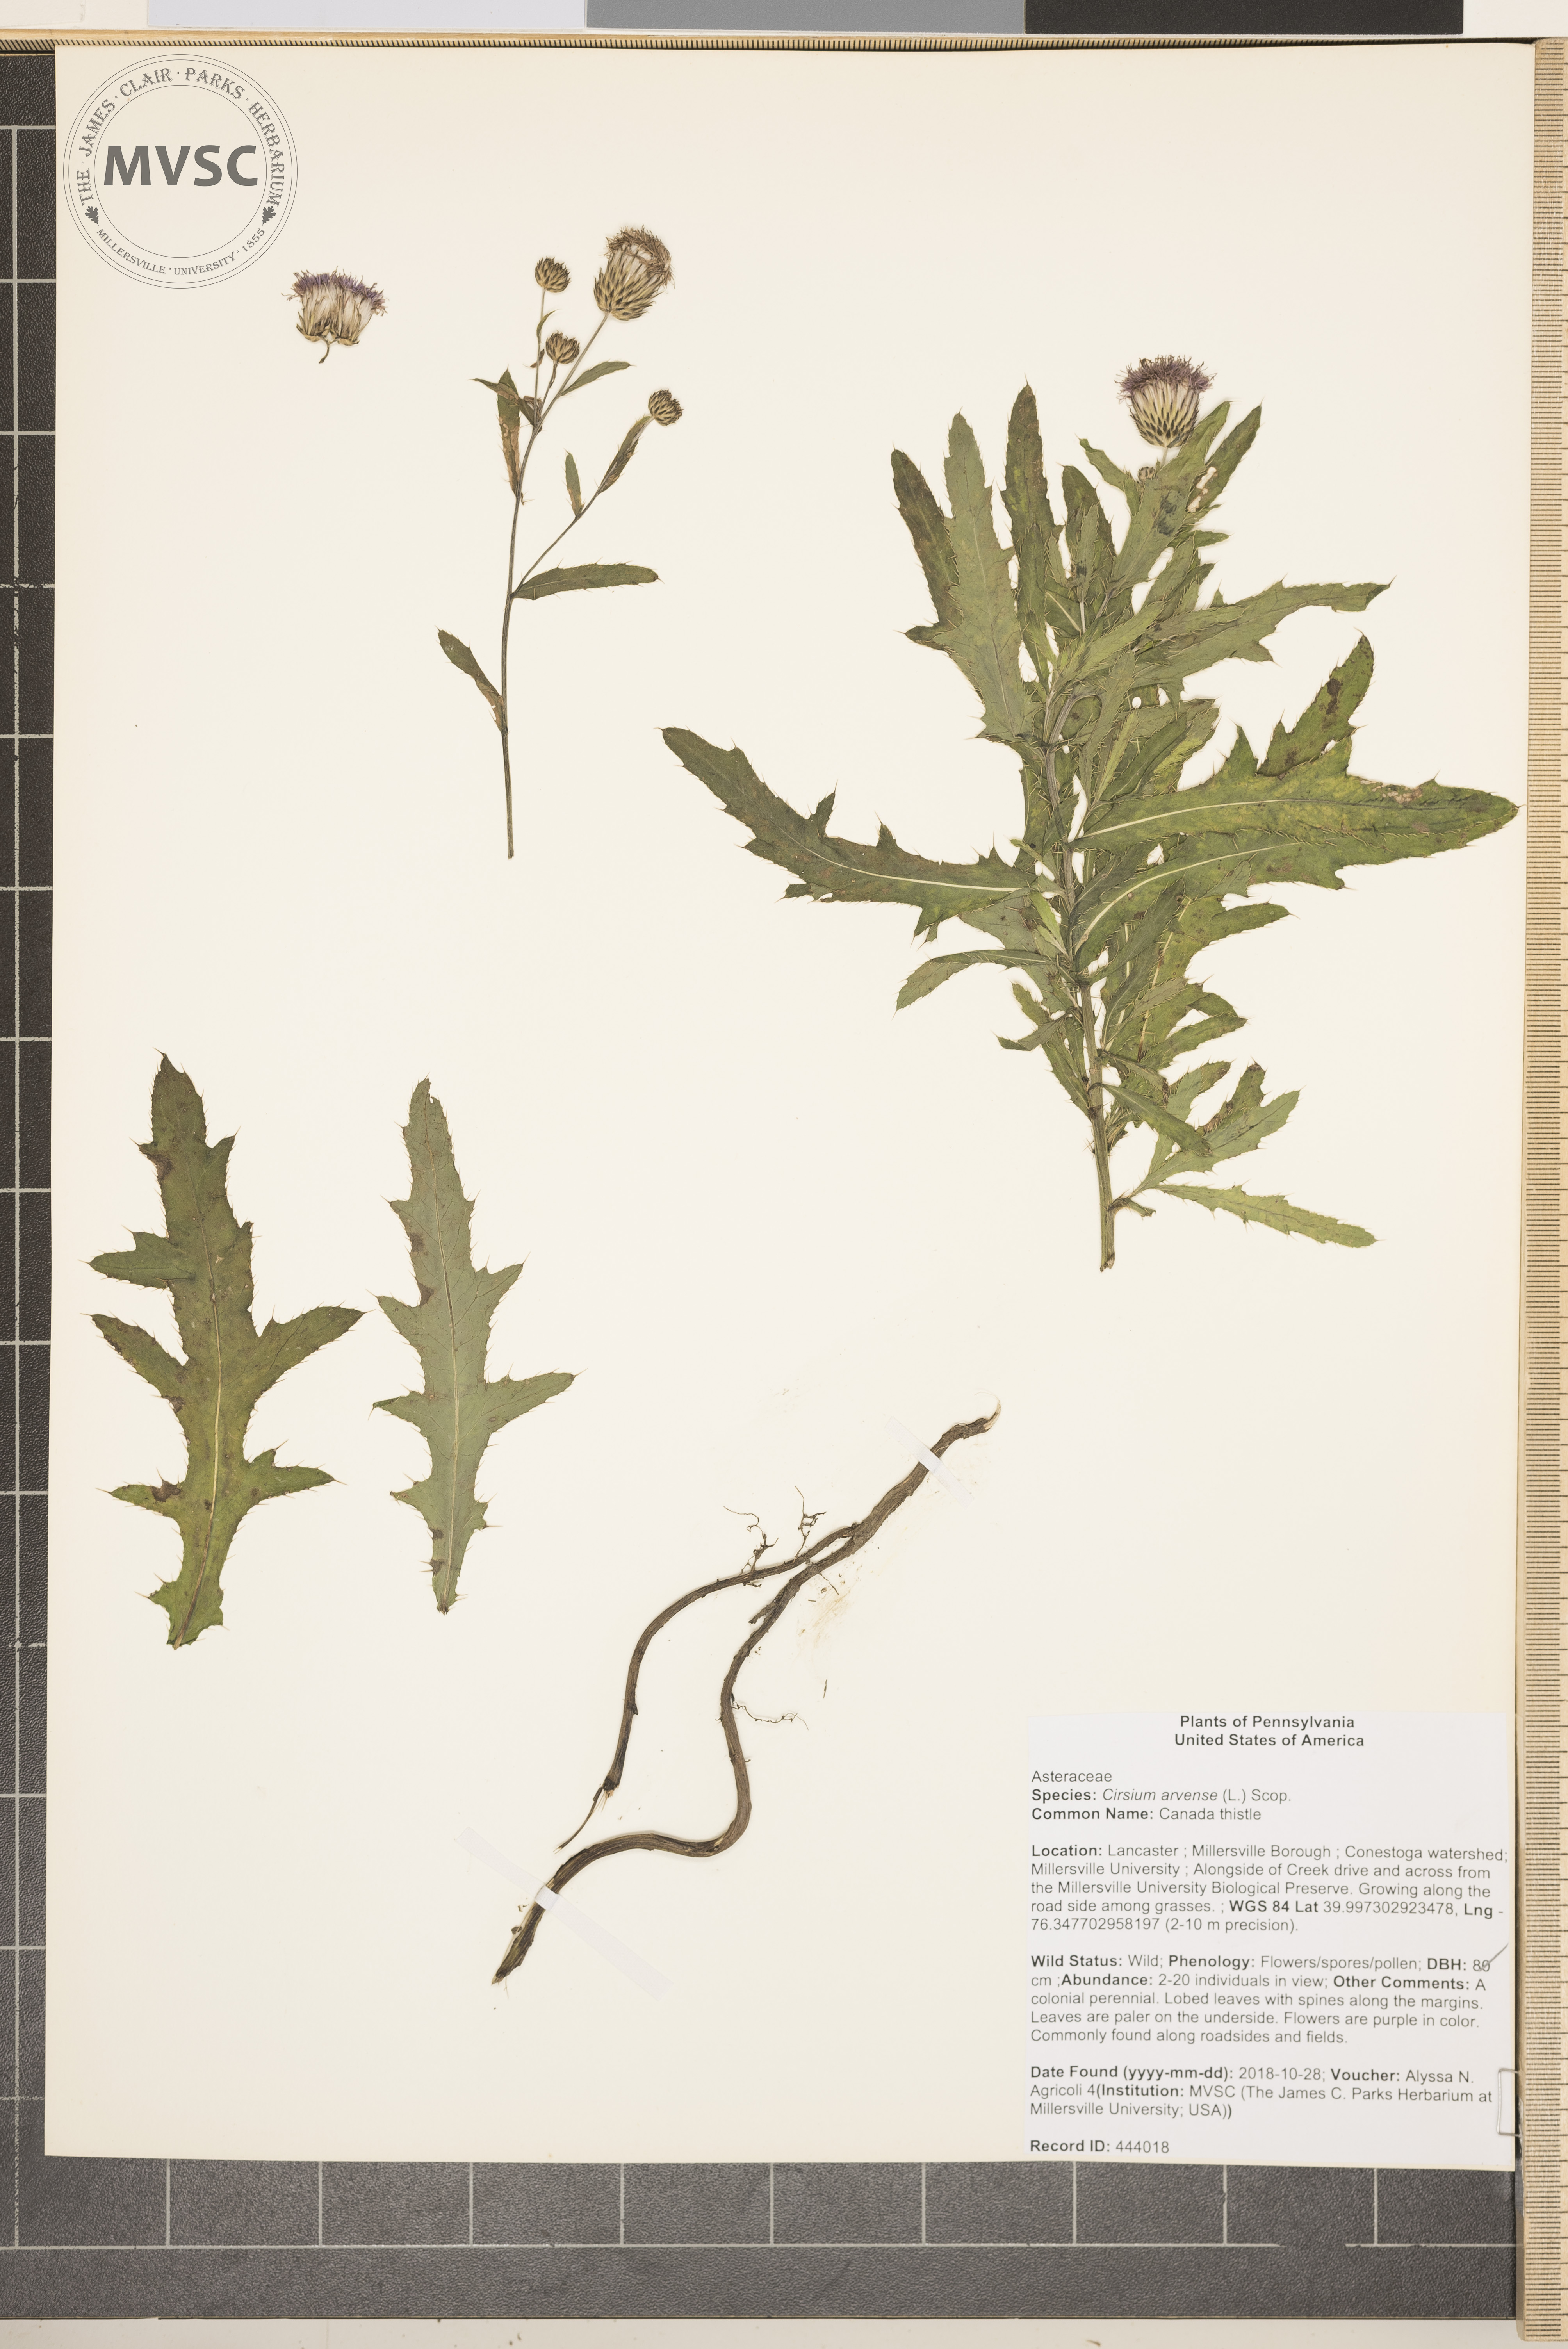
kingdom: Plantae
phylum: Tracheophyta
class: Magnoliopsida
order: Asterales
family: Asteraceae
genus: Cirsium
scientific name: Cirsium arvense
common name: Canada thistle
